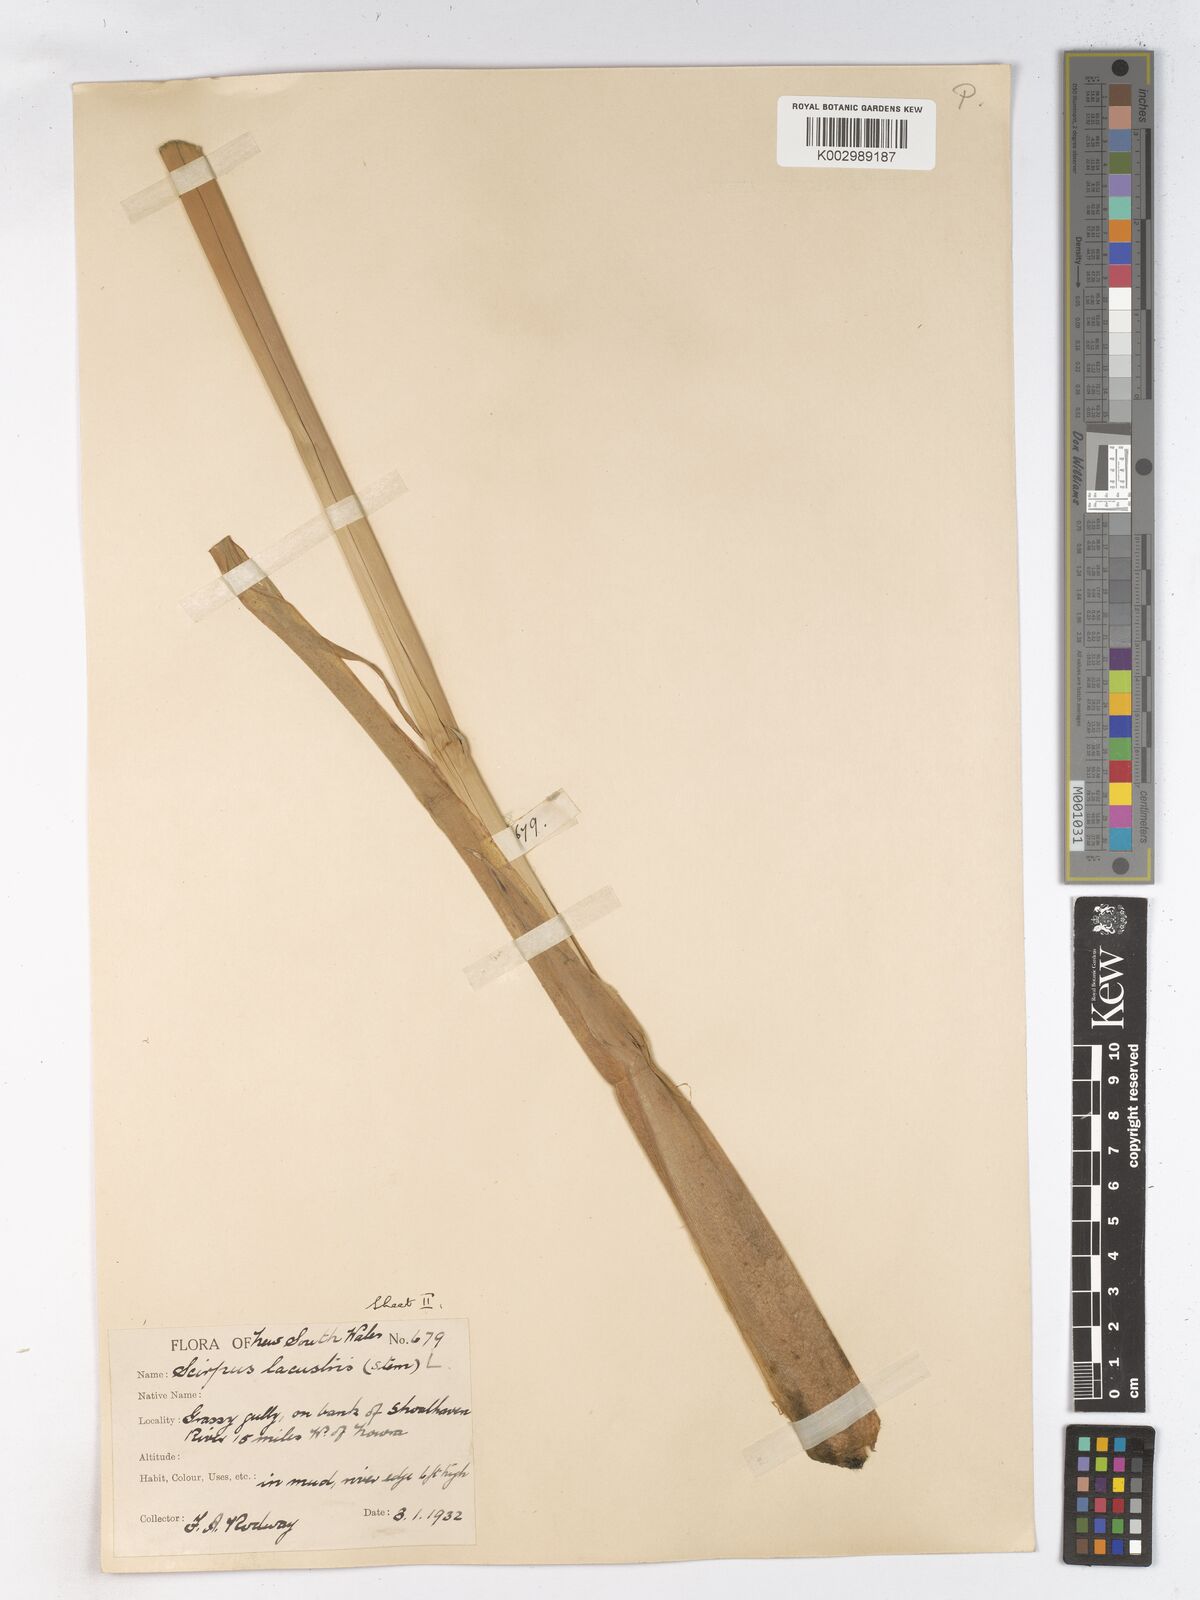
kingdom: Plantae
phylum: Tracheophyta
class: Liliopsida
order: Poales
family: Cyperaceae
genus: Schoenoplectus
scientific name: Schoenoplectus lacustris
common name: Common club-rush
